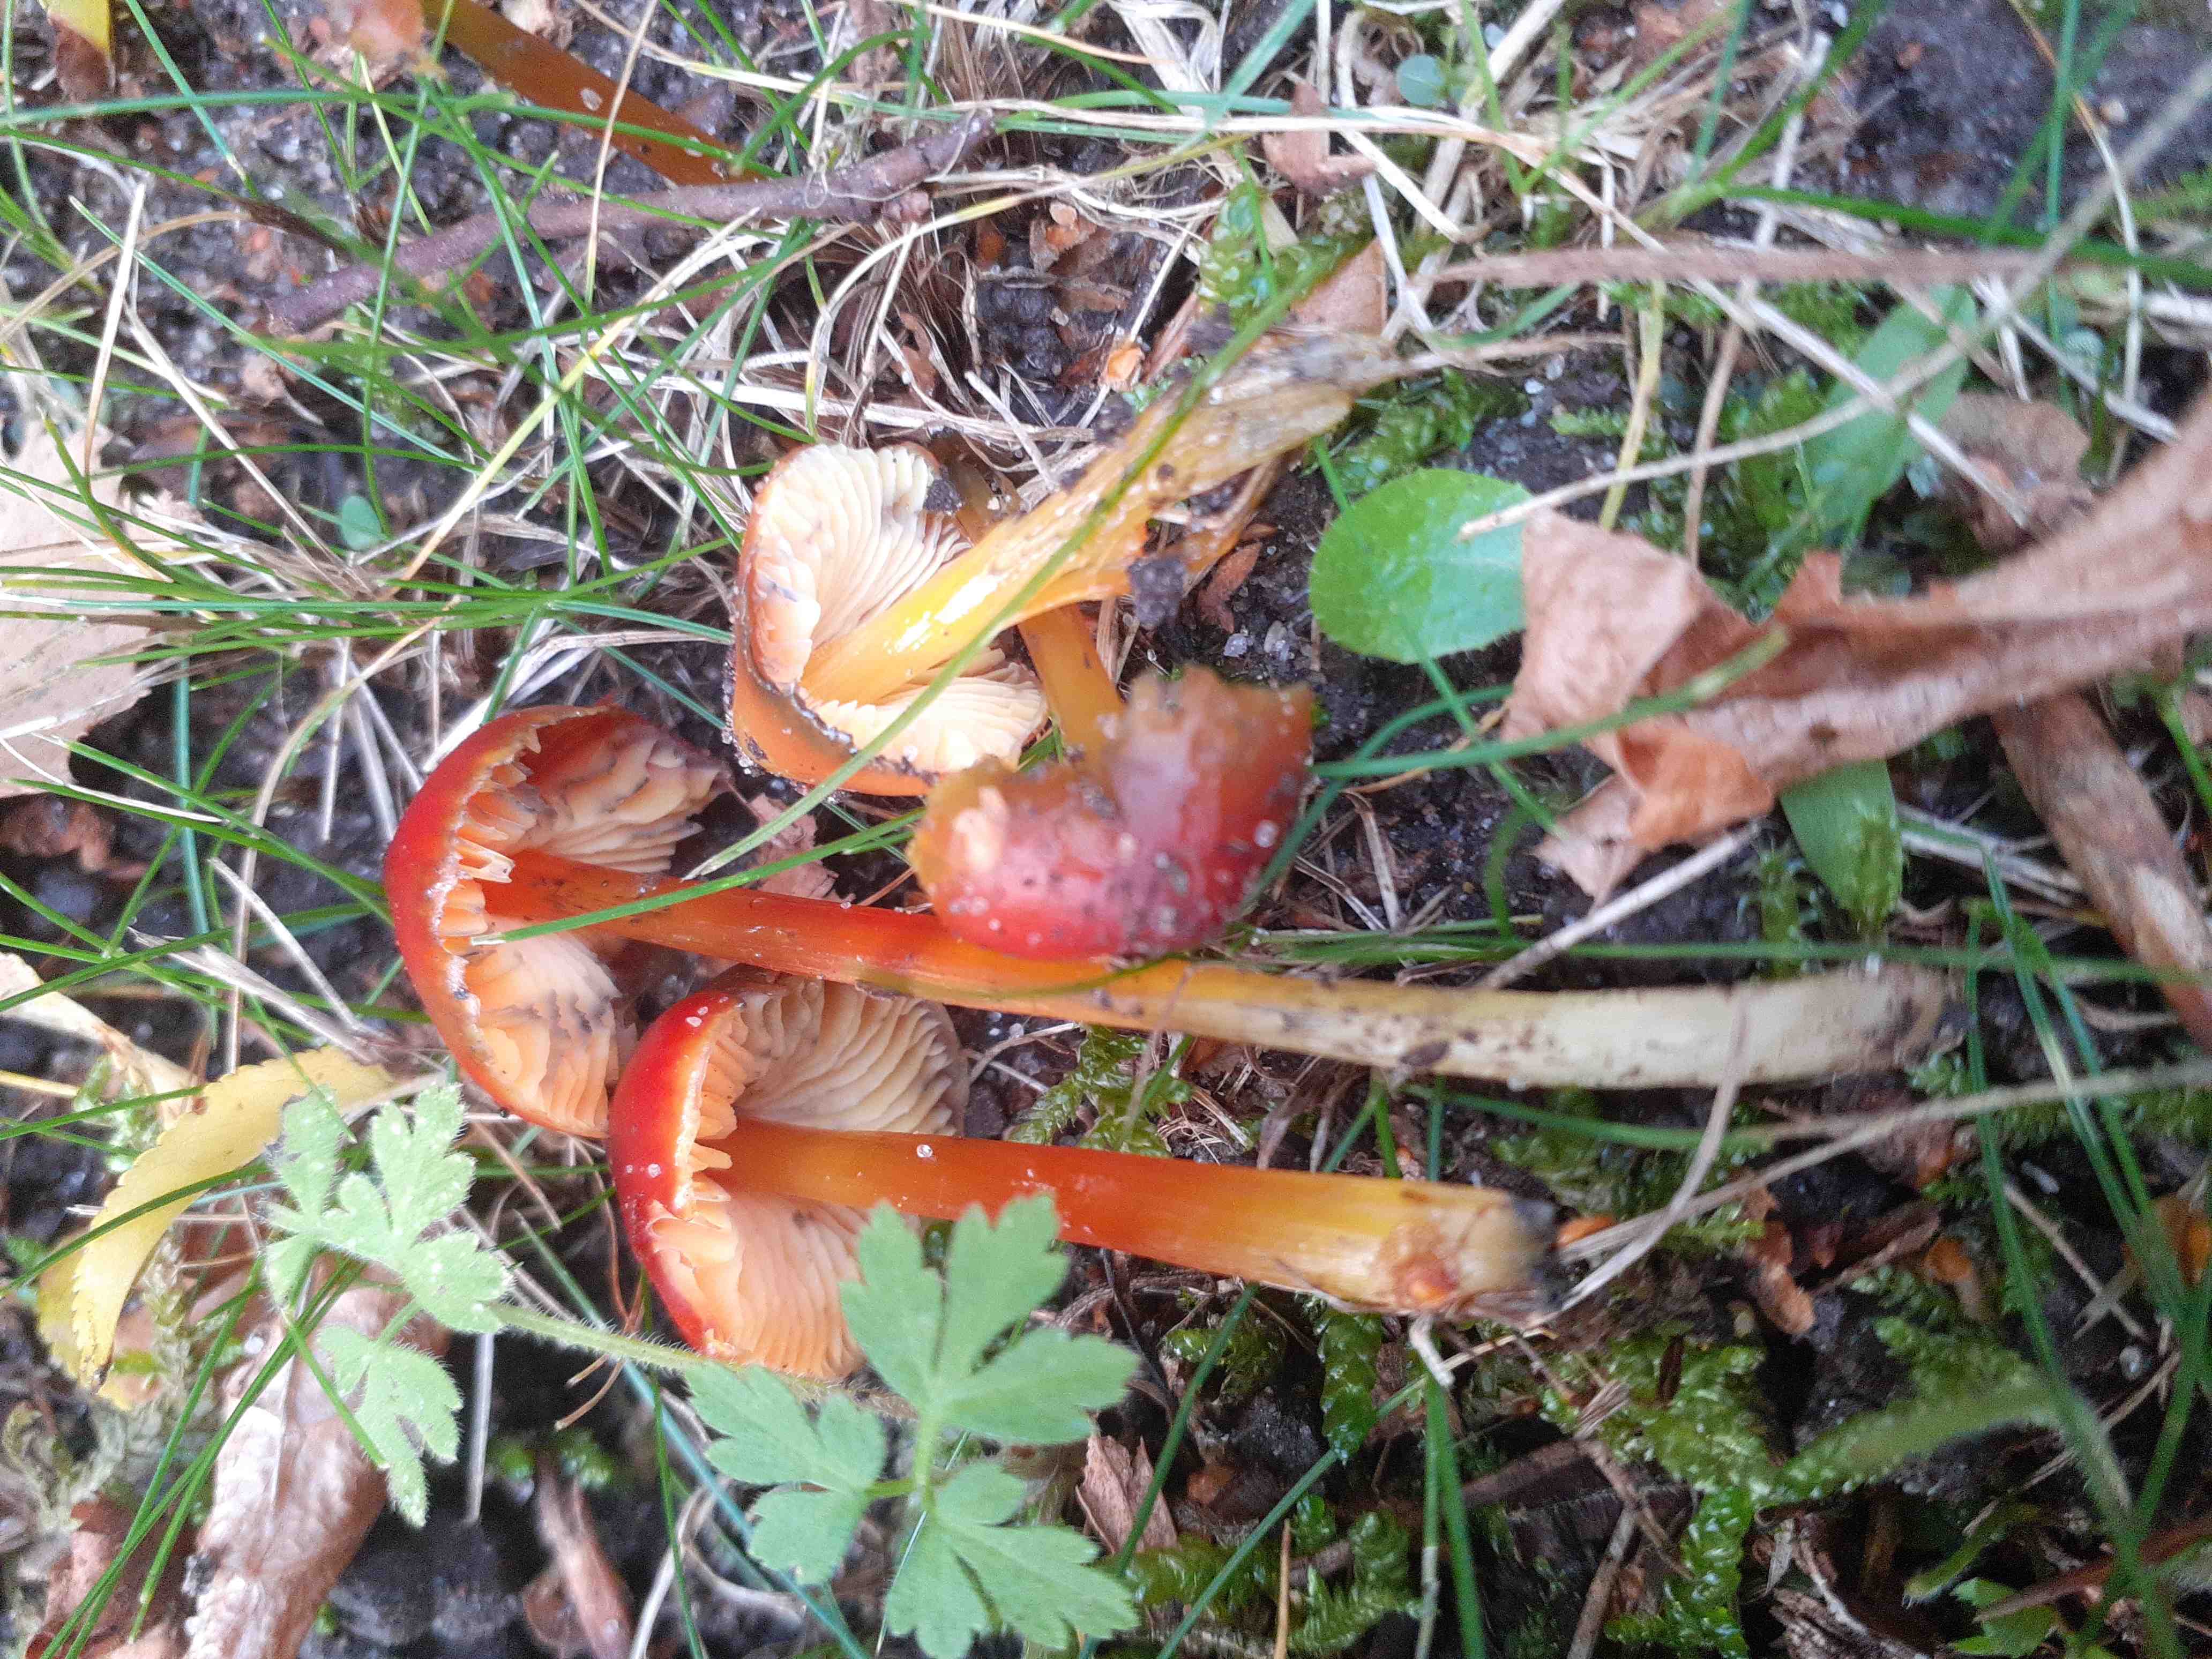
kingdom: Fungi
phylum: Basidiomycota
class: Agaricomycetes
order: Agaricales
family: Hygrophoraceae
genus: Hygrocybe
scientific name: Hygrocybe conica
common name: kegle-vokshat
